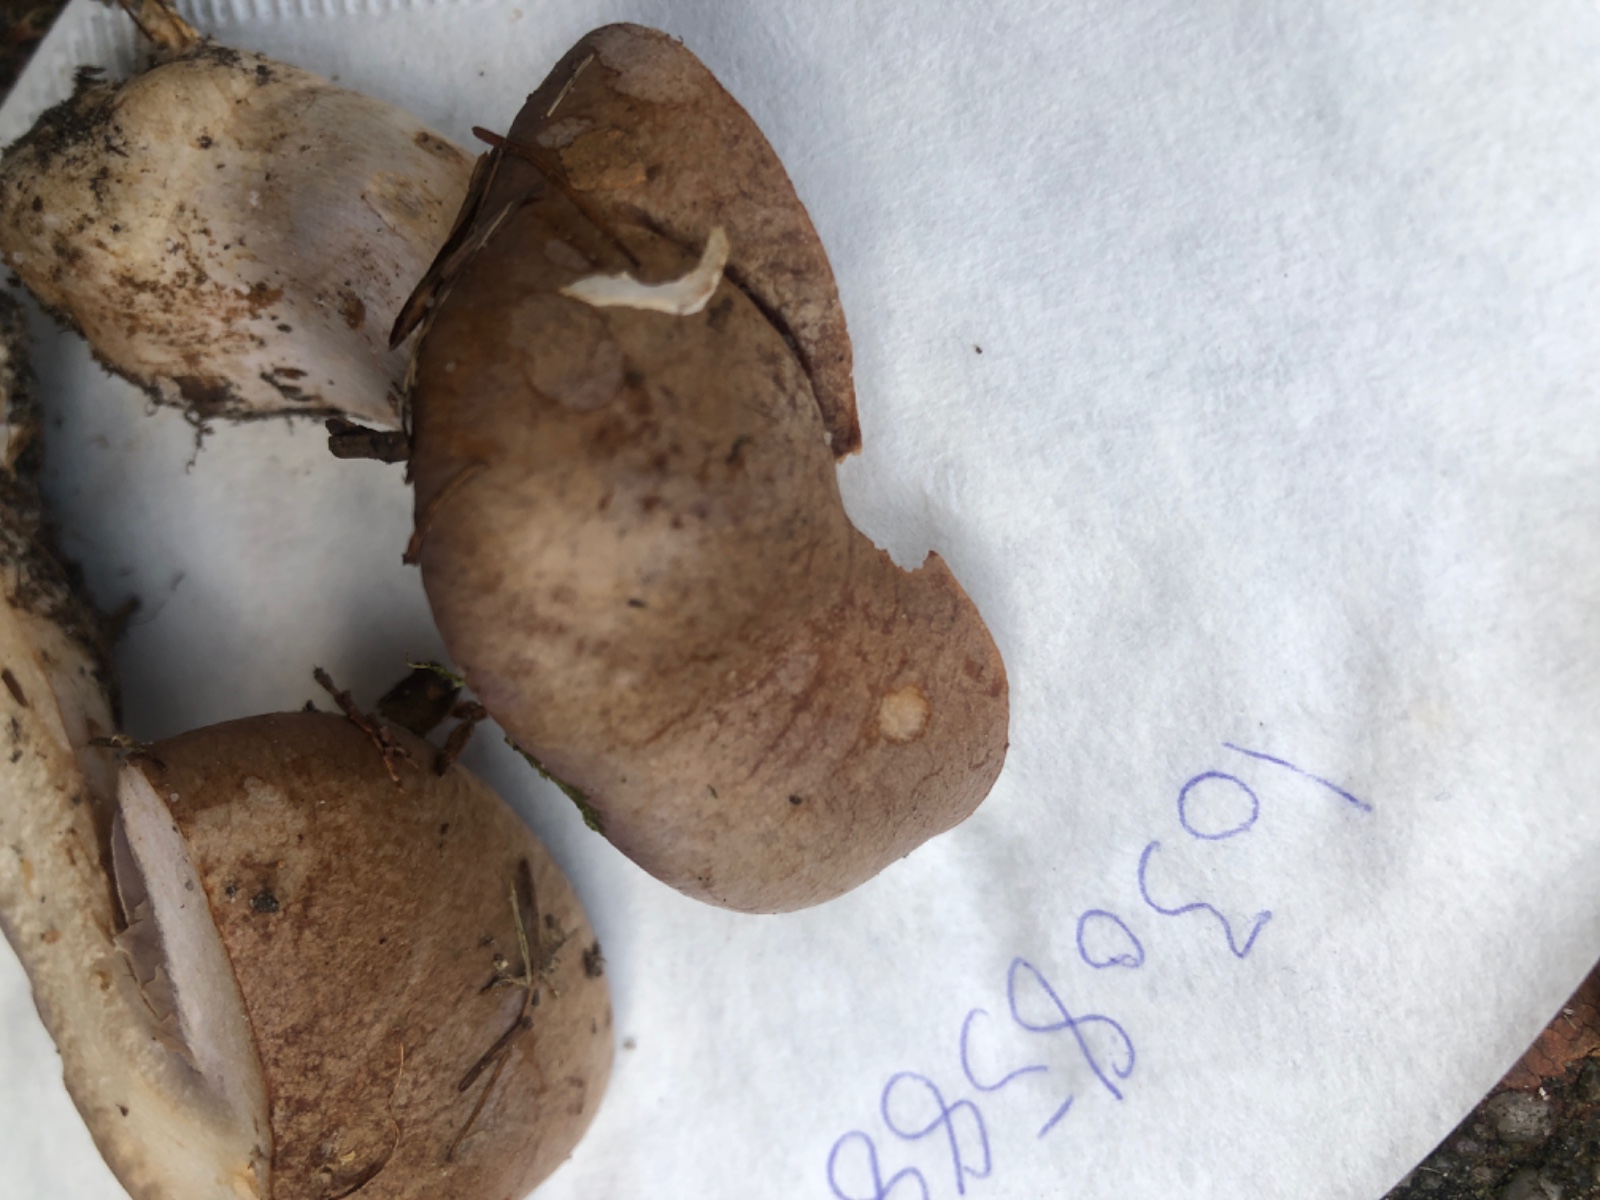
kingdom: Fungi
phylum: Basidiomycota
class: Agaricomycetes
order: Agaricales
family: Cortinariaceae
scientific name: Cortinariaceae
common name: slørhatfamilien
